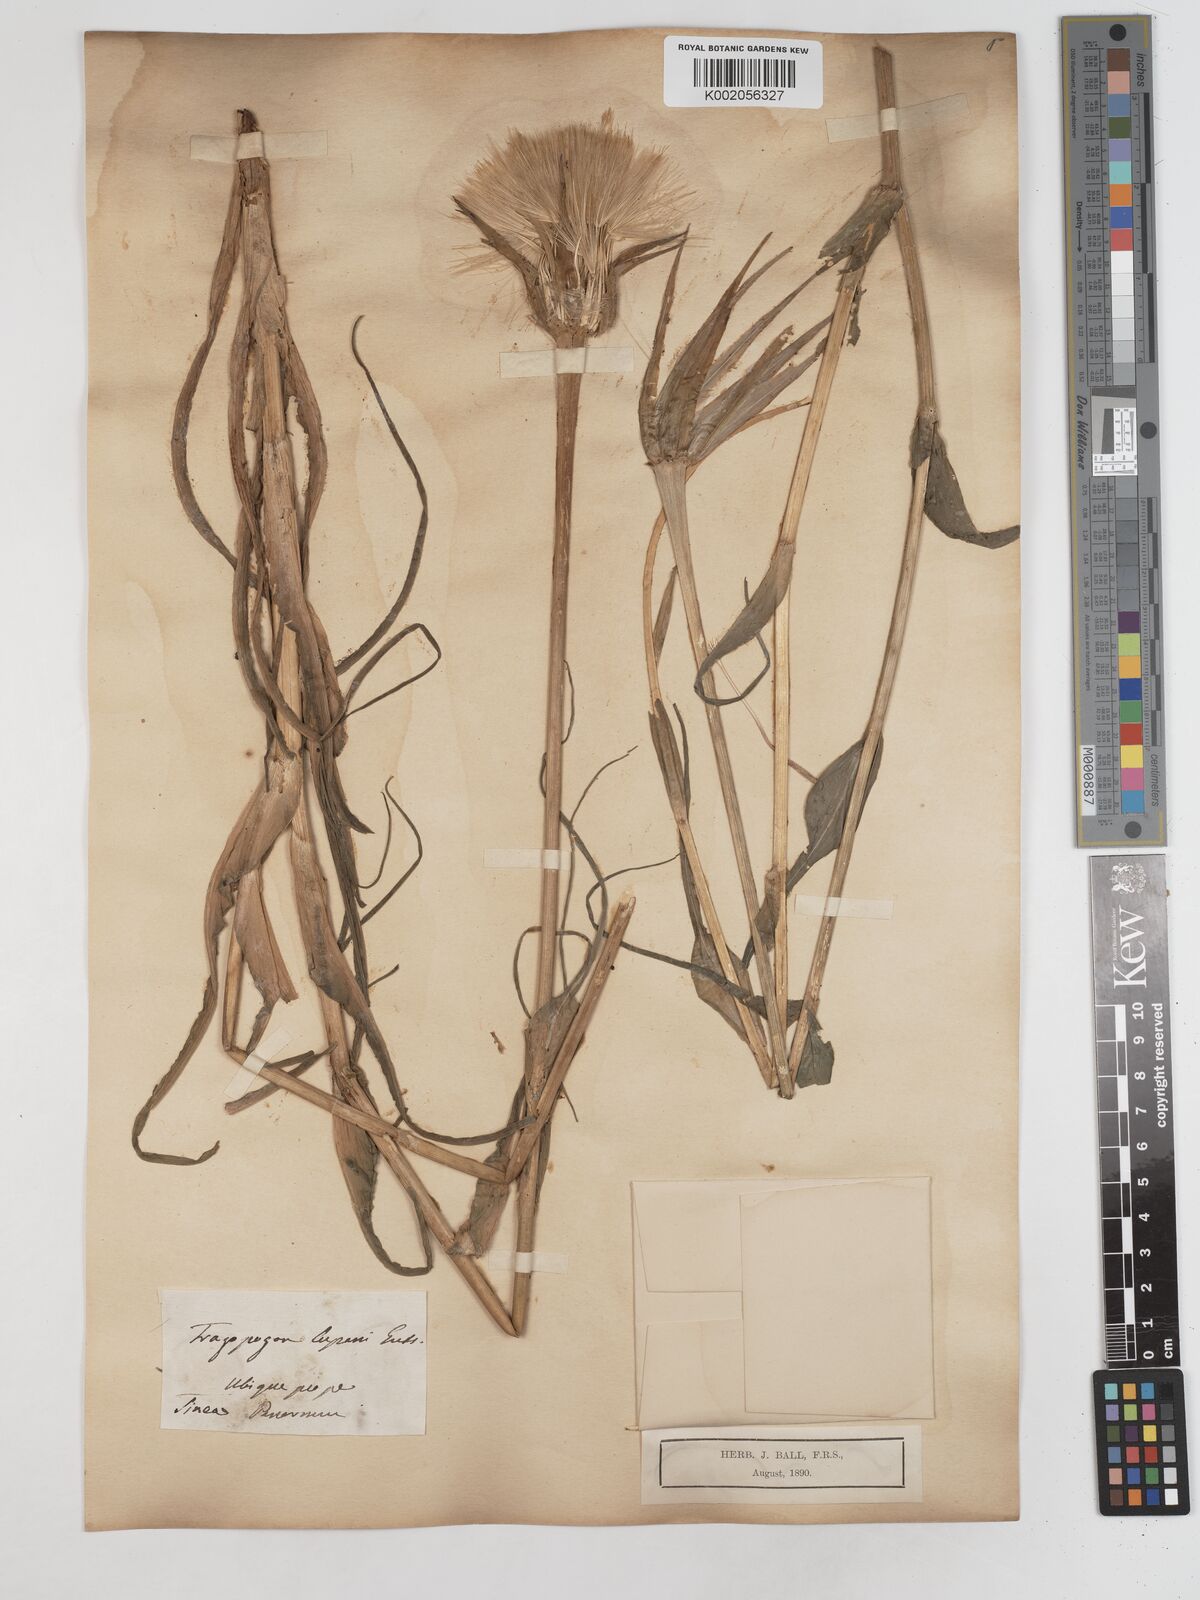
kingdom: Plantae
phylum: Tracheophyta
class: Magnoliopsida
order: Asterales
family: Asteraceae
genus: Tragopogon
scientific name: Tragopogon porrifolius
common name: Salsify
